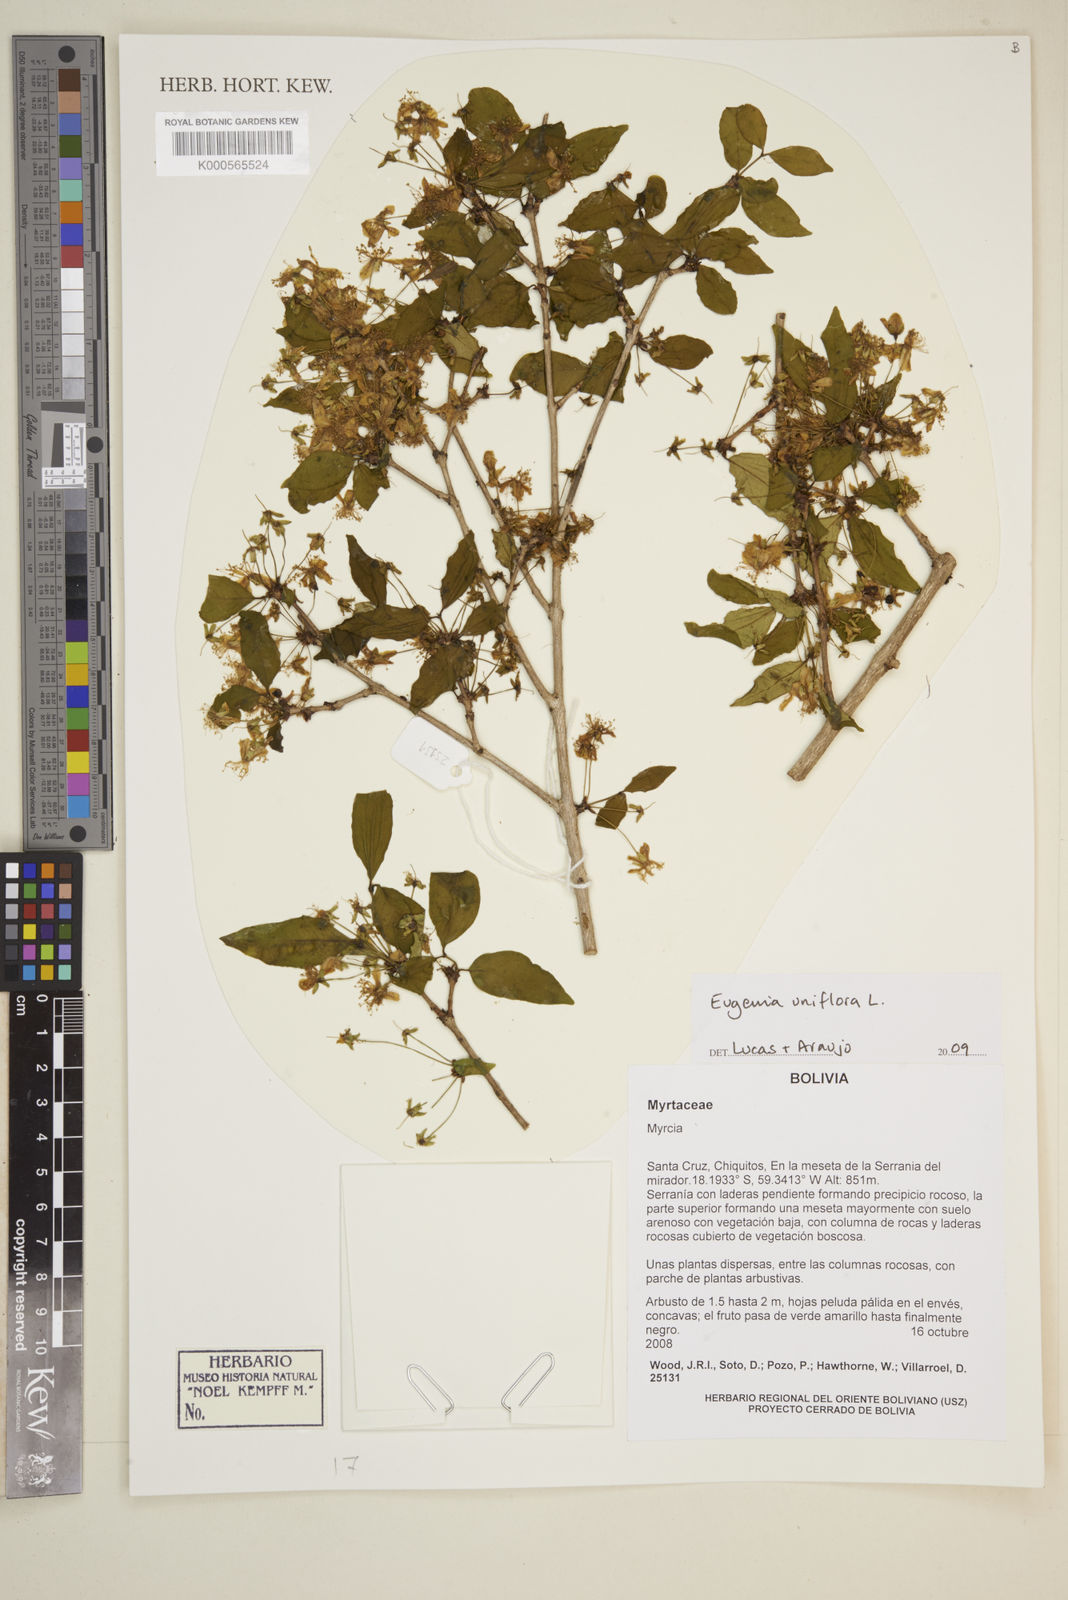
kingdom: Plantae
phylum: Tracheophyta
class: Magnoliopsida
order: Myrtales
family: Myrtaceae
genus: Eugenia
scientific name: Eugenia
